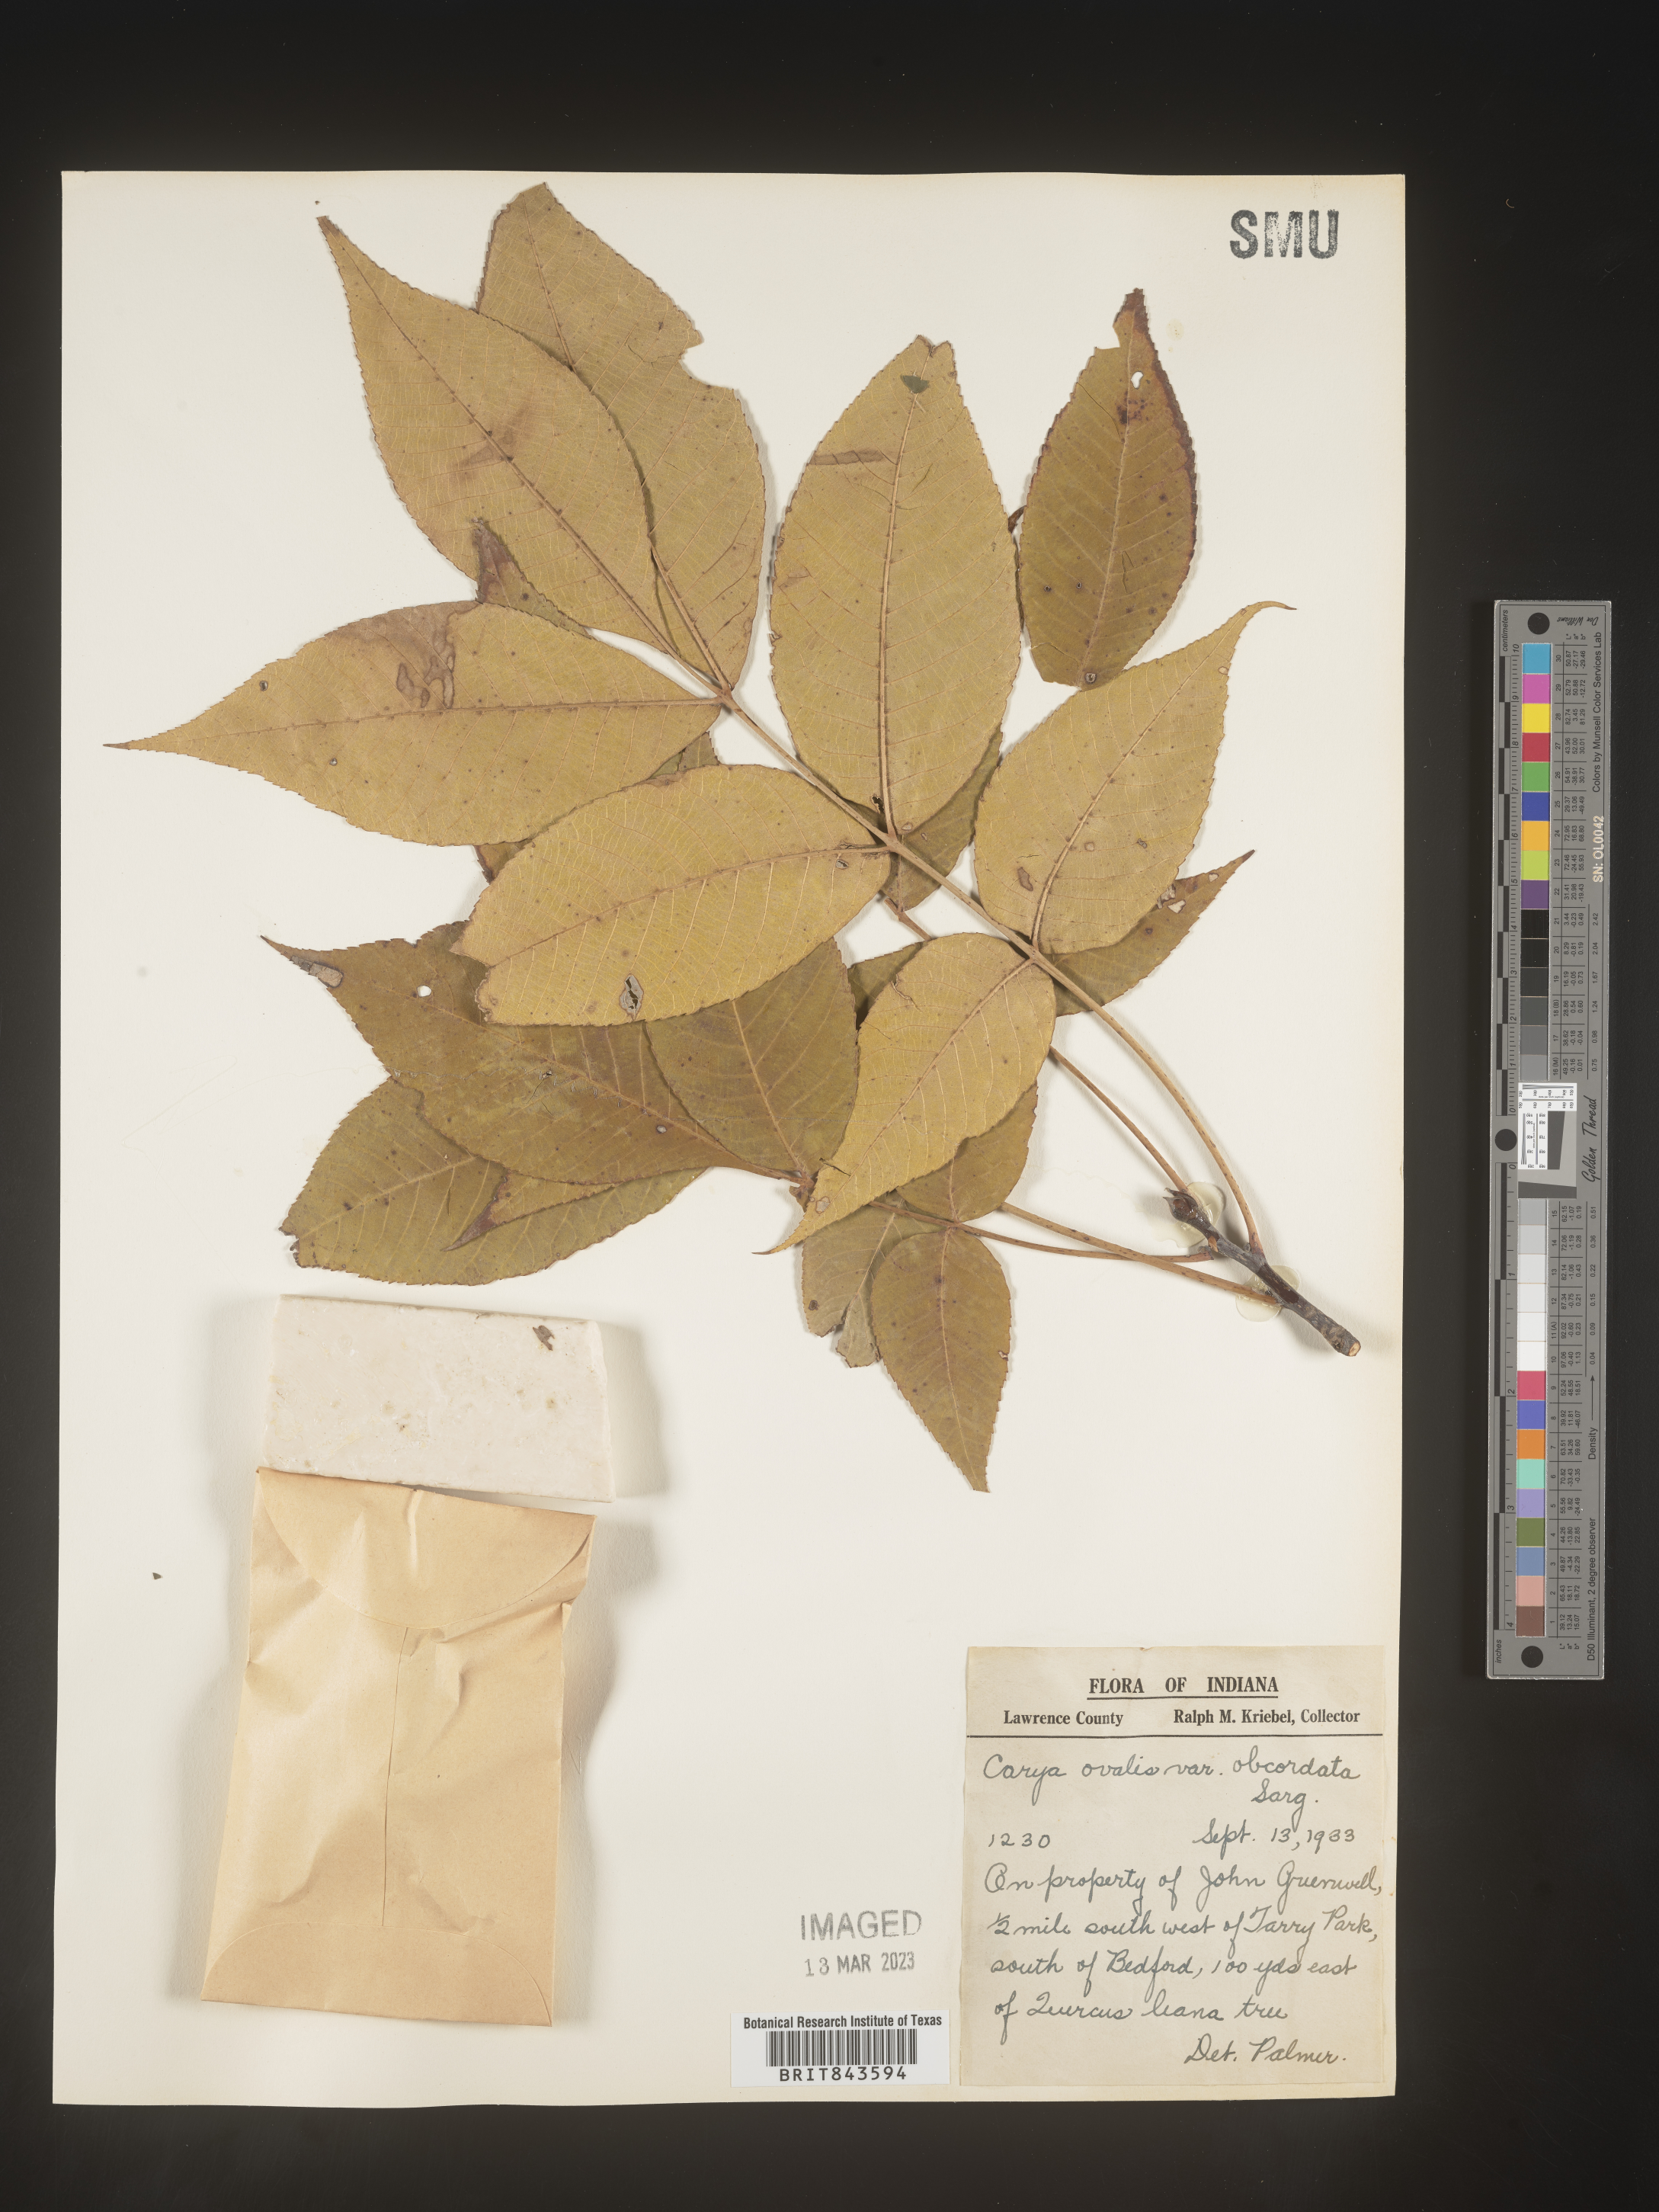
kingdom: Plantae
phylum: Tracheophyta
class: Magnoliopsida
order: Fagales
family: Juglandaceae
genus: Carya
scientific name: Carya ovalis
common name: False shagbark
